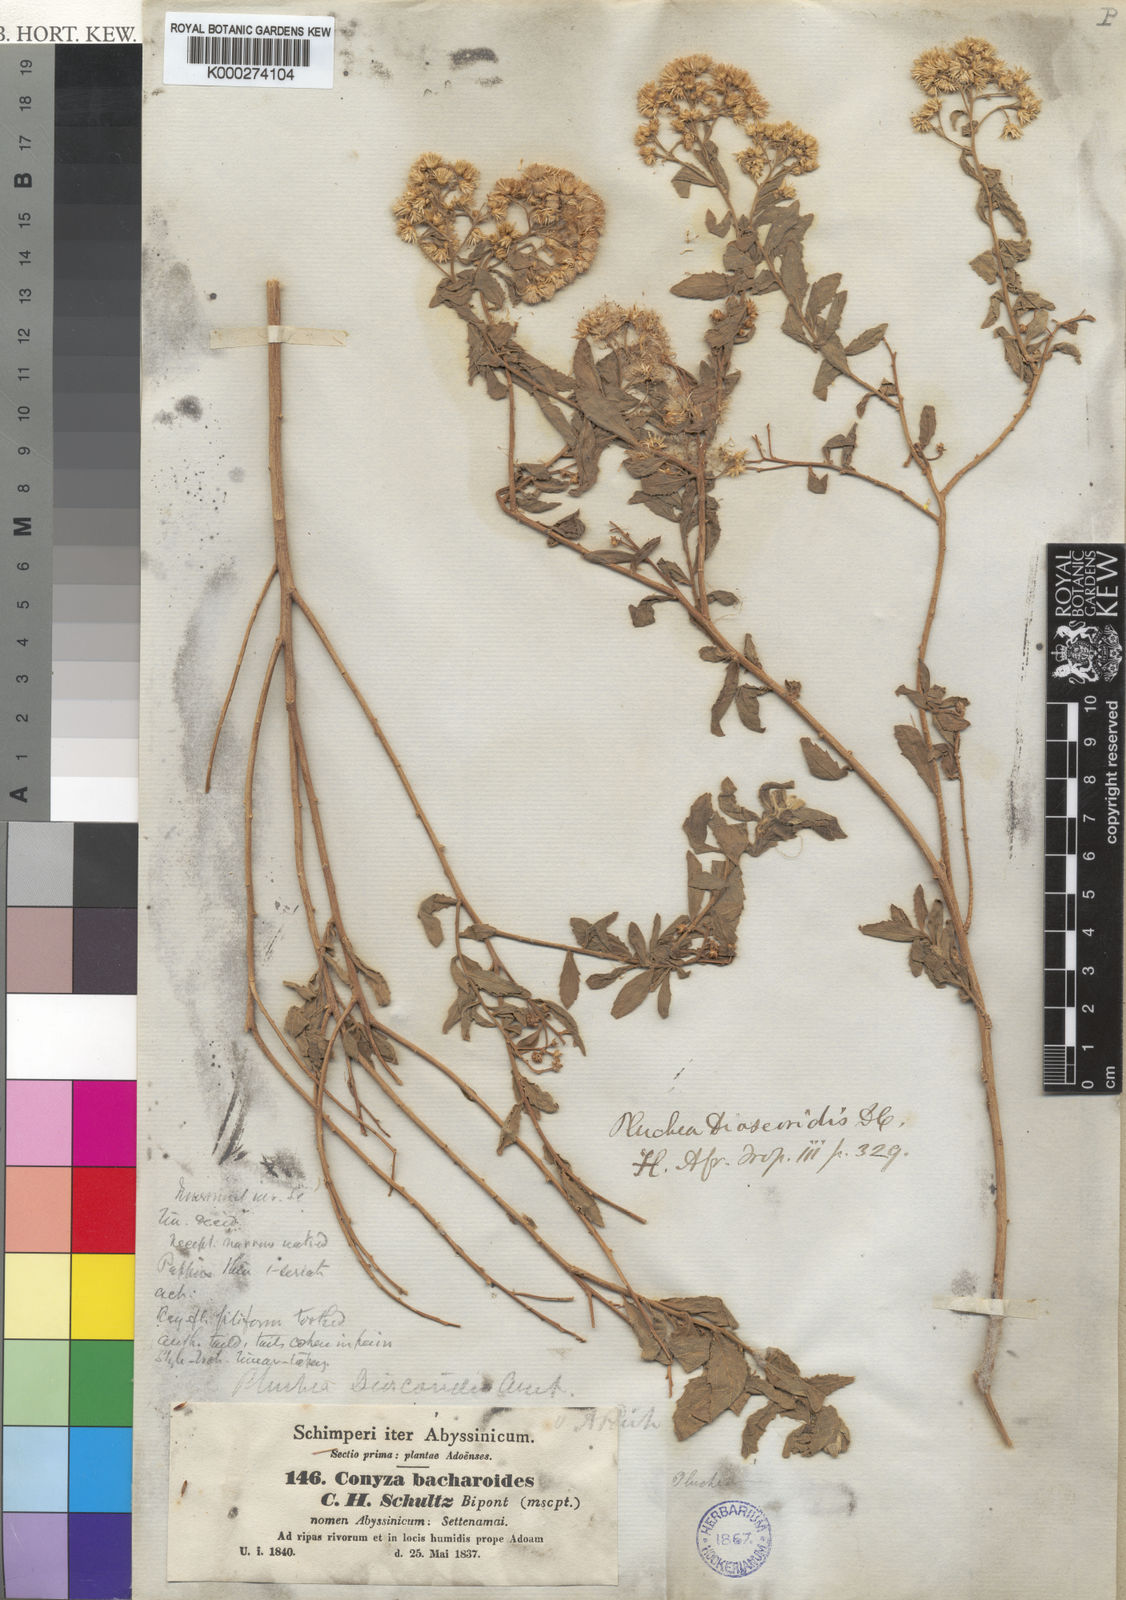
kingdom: Plantae
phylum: Tracheophyta
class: Magnoliopsida
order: Asterales
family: Asteraceae
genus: Pluchea
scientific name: Pluchea dioscoridis
